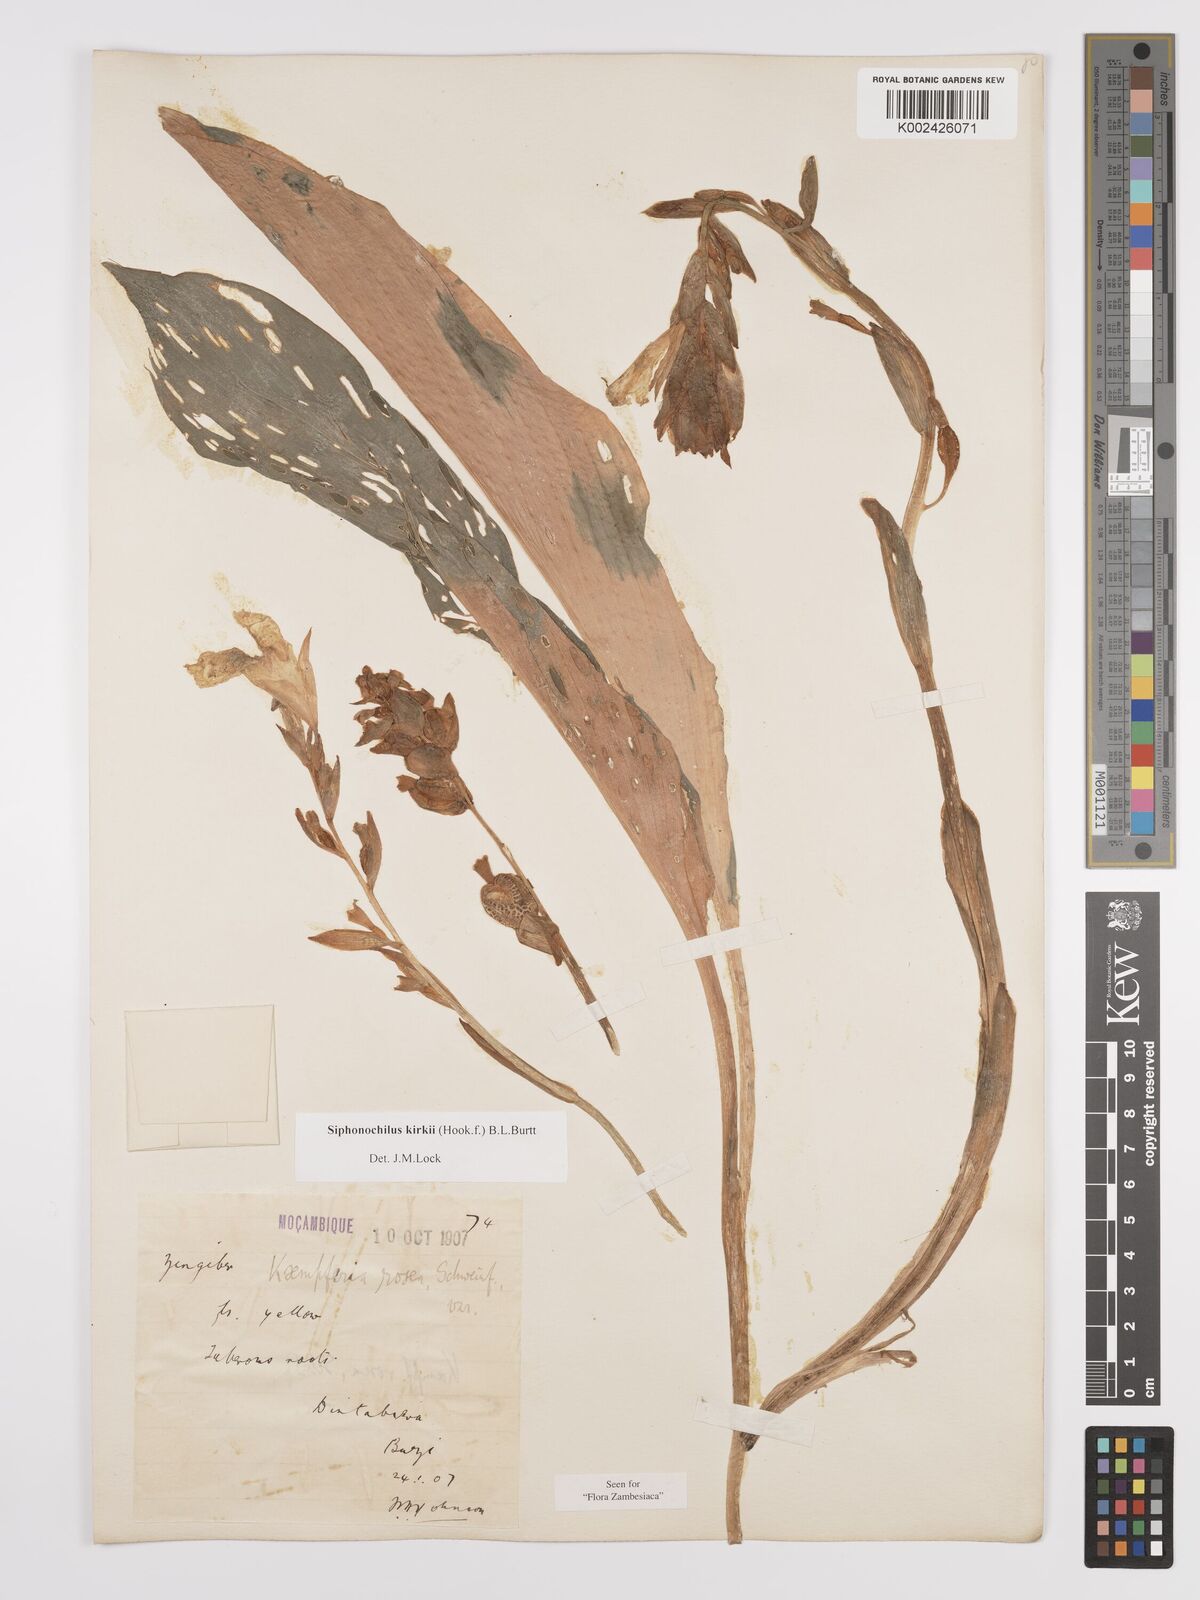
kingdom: Plantae
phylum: Tracheophyta
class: Liliopsida
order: Zingiberales
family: Zingiberaceae
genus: Siphonochilus
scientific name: Siphonochilus kirkii
